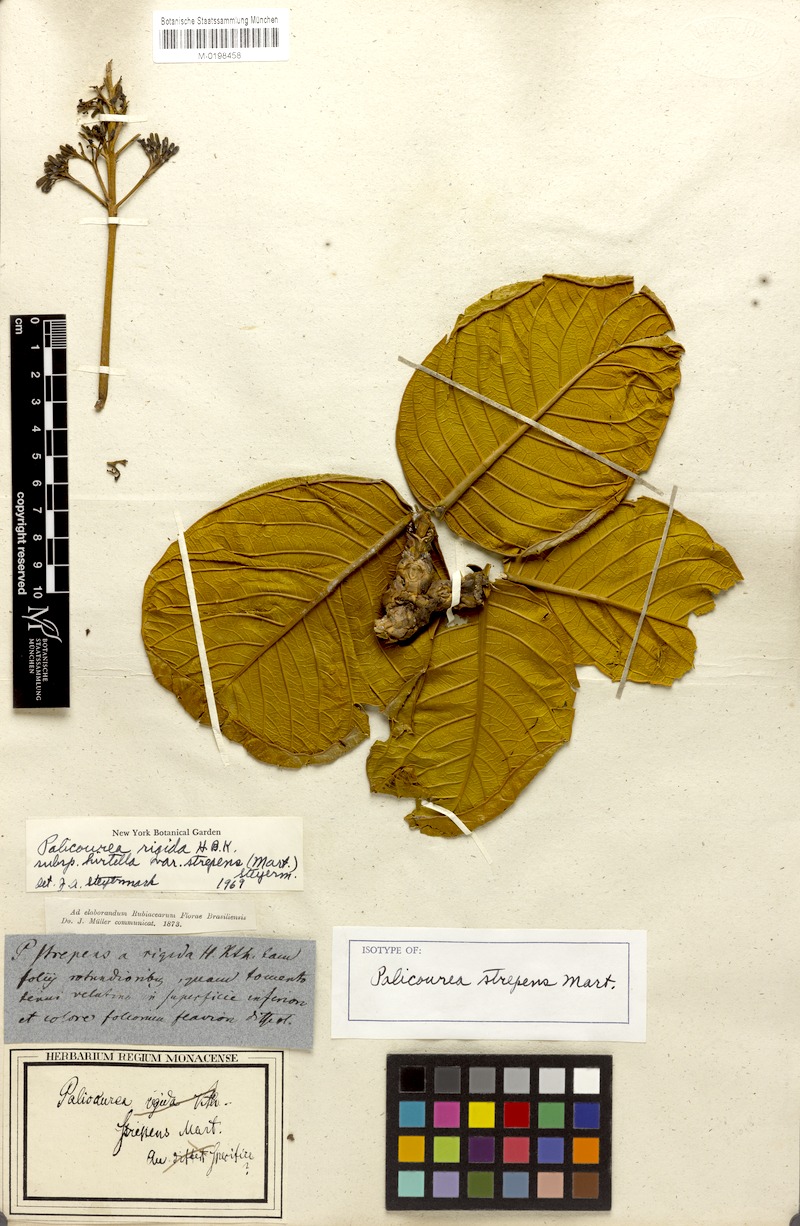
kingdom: Plantae
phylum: Tracheophyta
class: Magnoliopsida
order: Gentianales
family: Rubiaceae
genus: Palicourea
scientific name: Palicourea rigida
